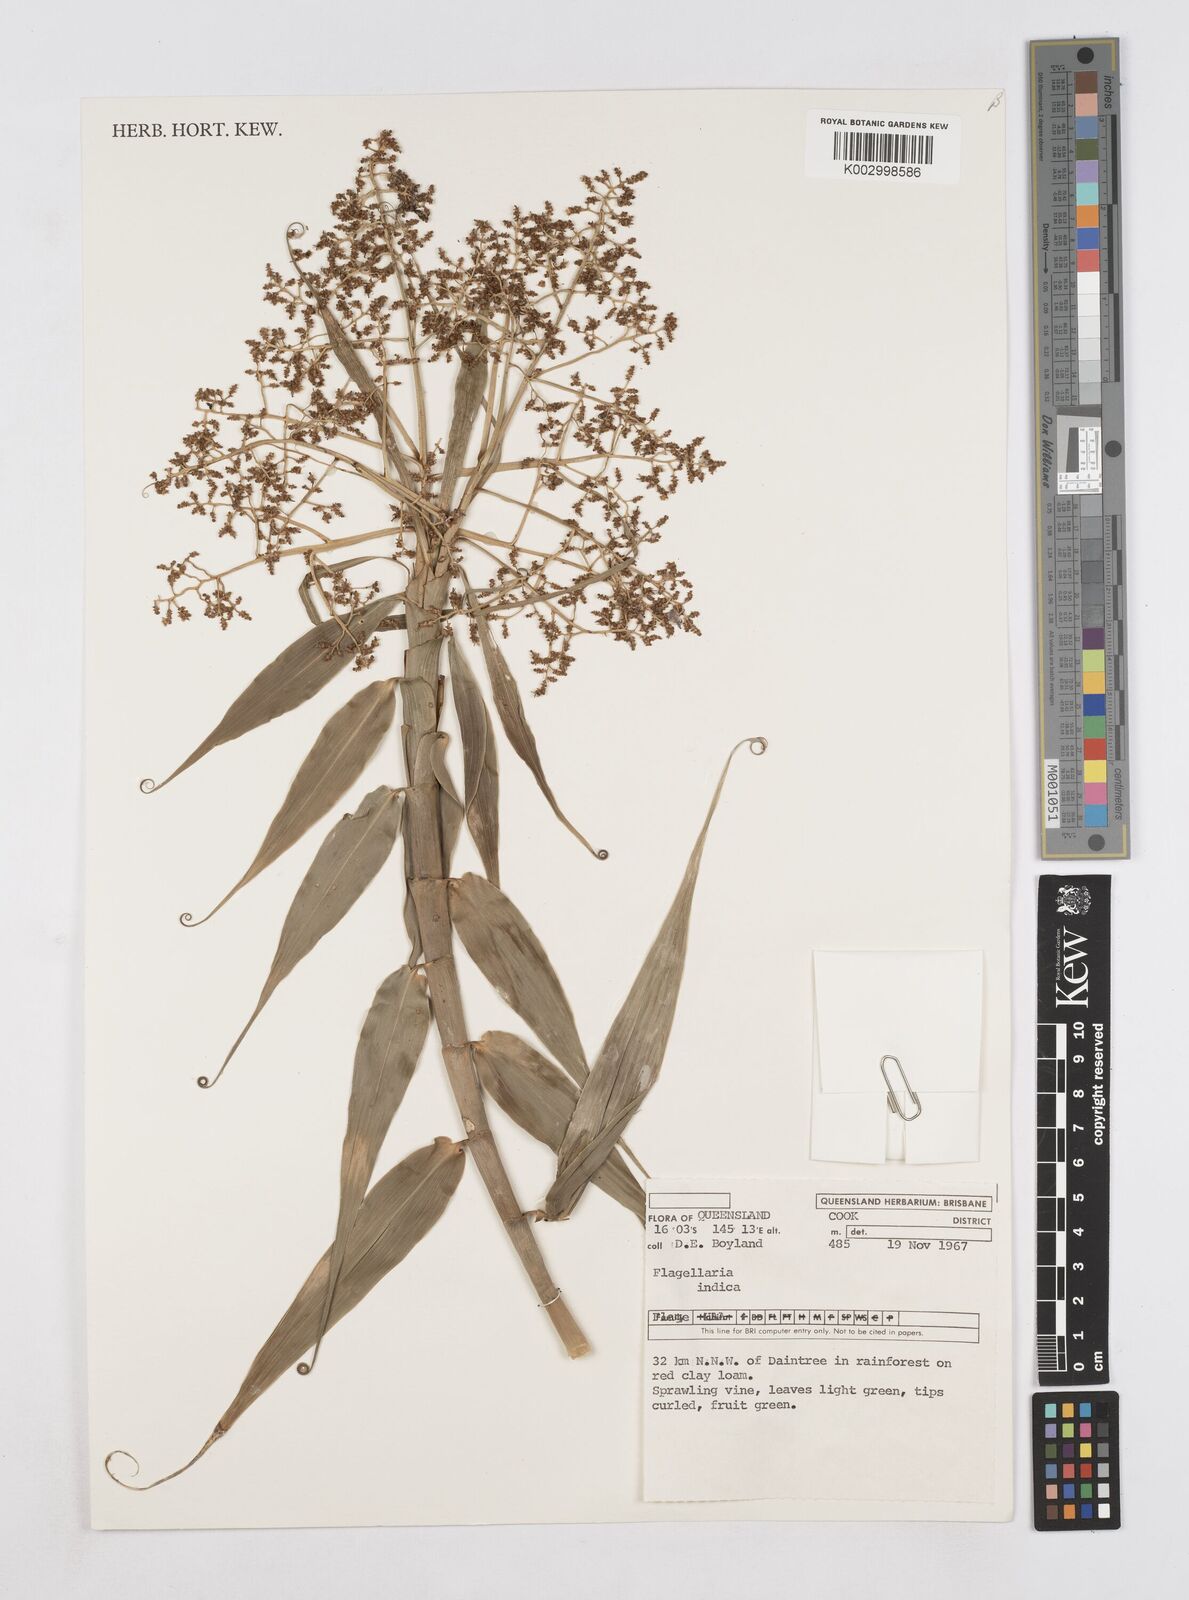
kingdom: Plantae
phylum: Tracheophyta
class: Liliopsida
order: Poales
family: Flagellariaceae
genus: Flagellaria
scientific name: Flagellaria indica
